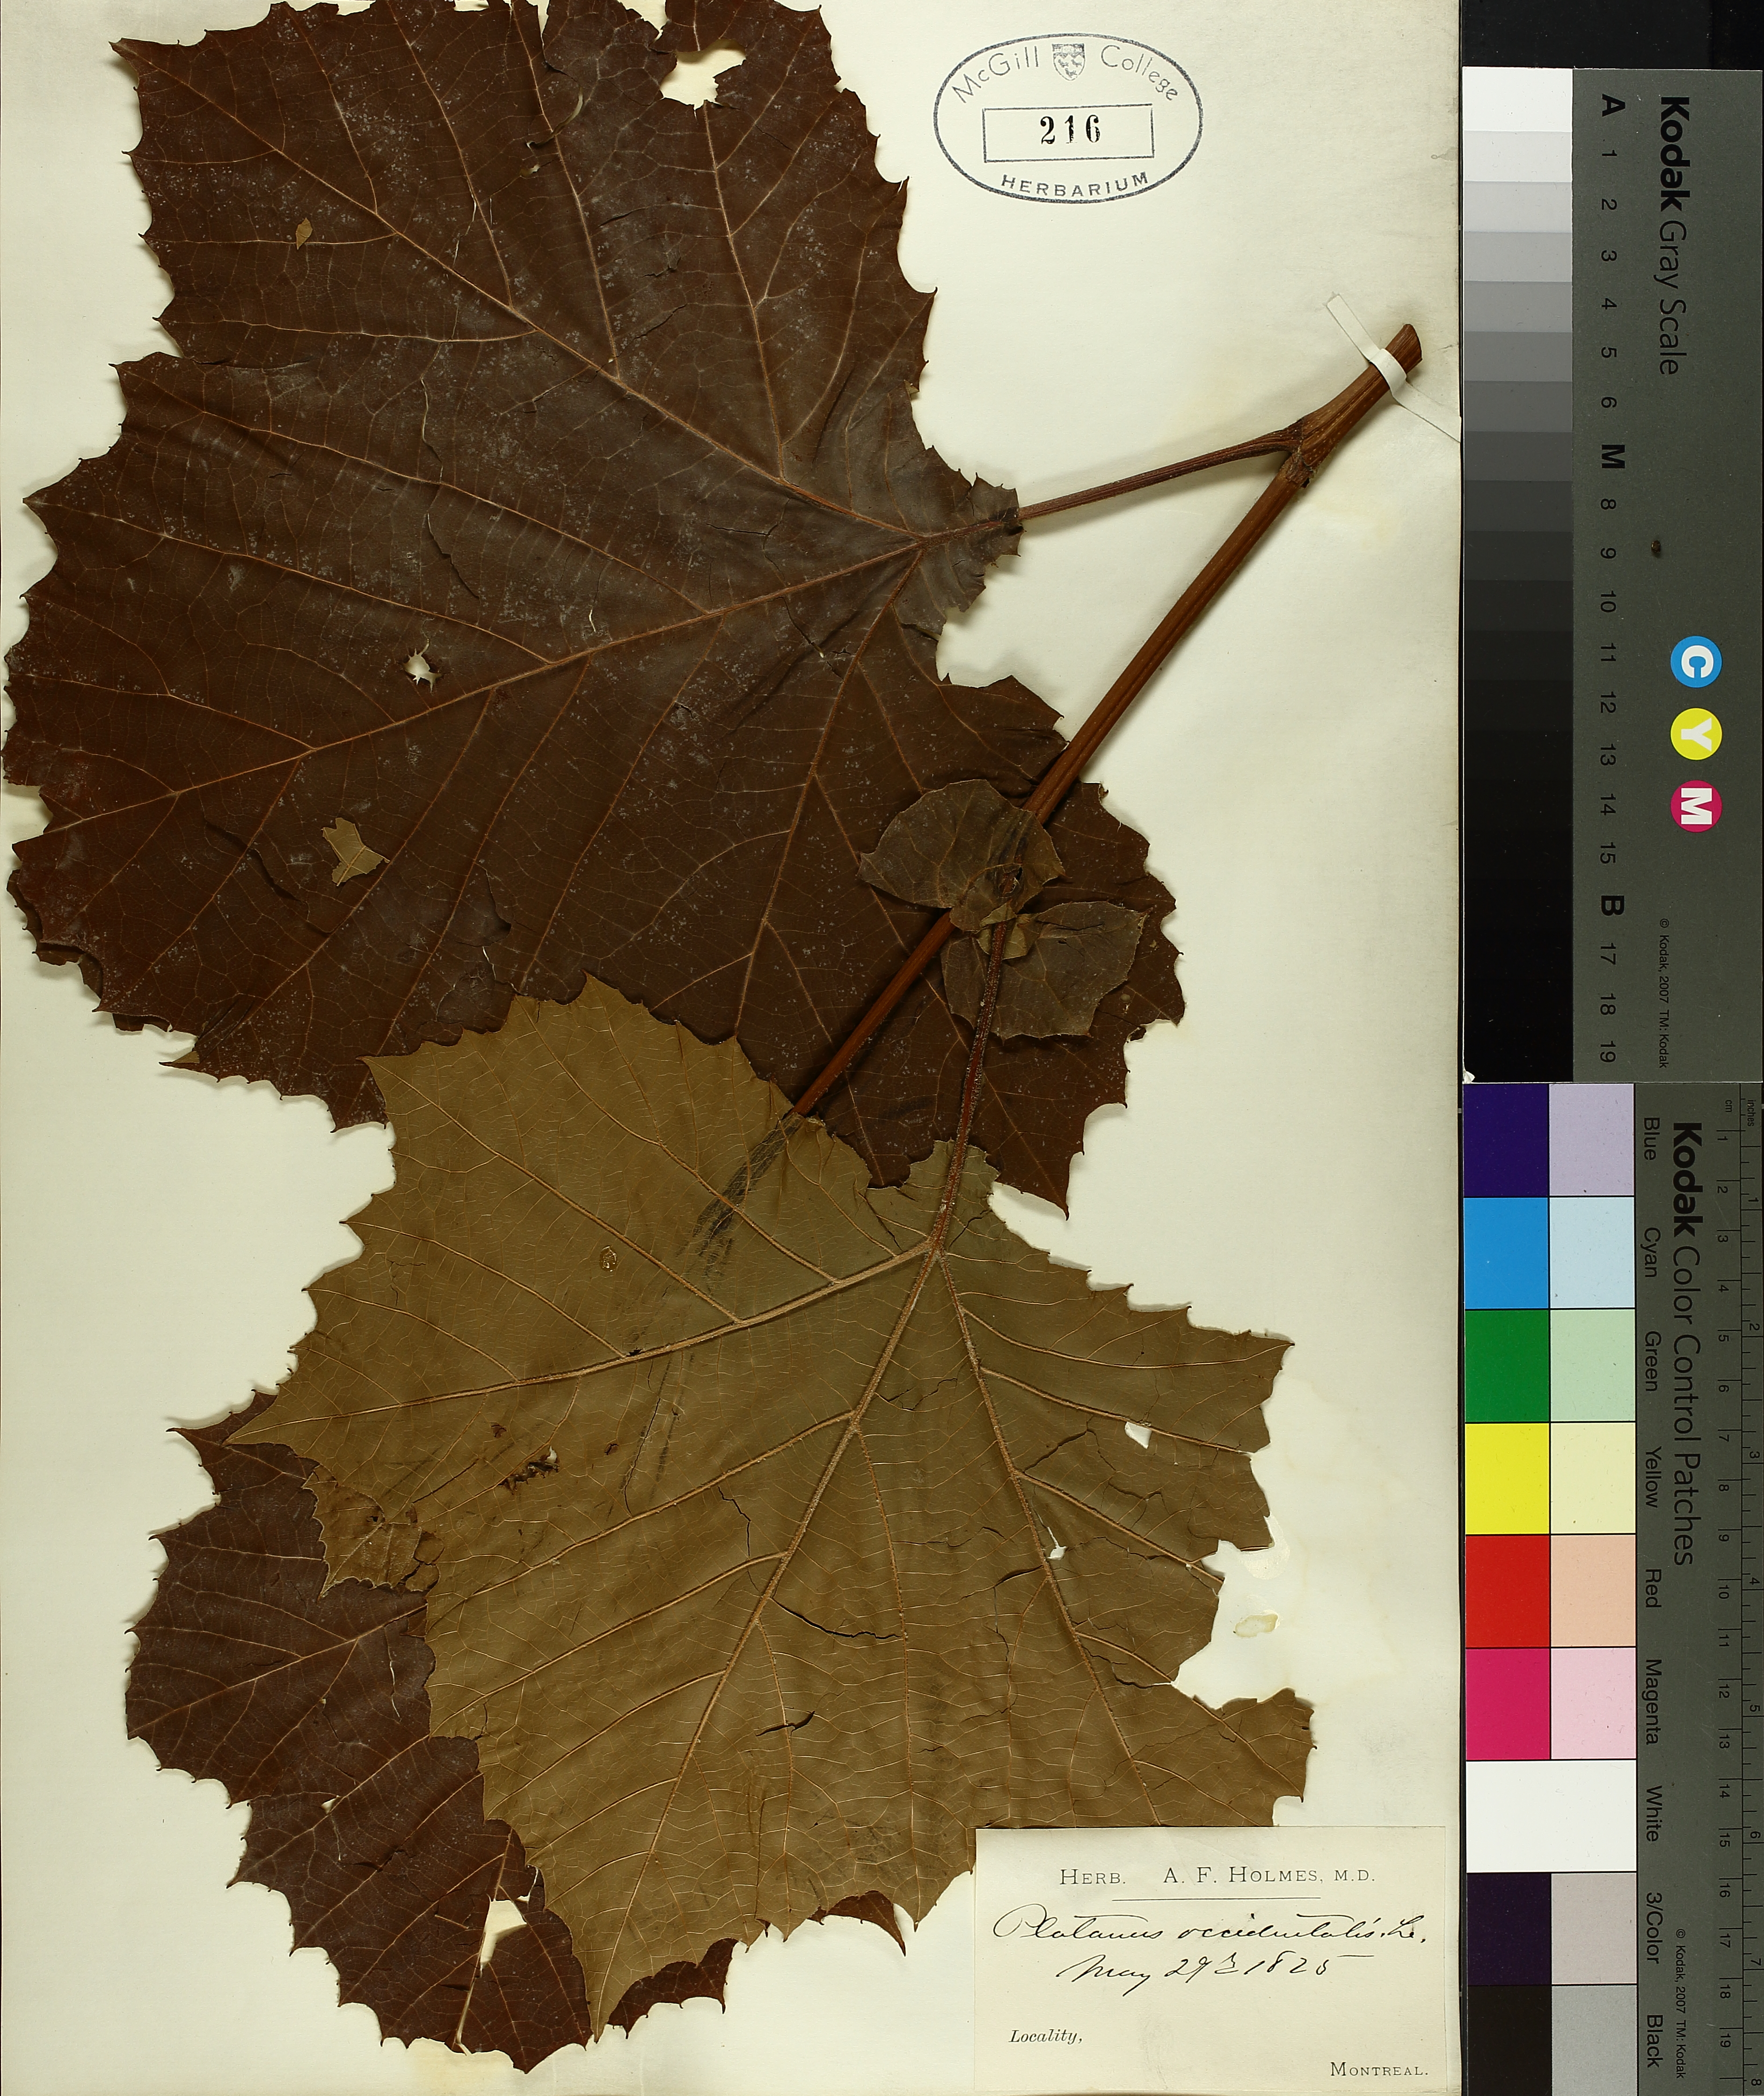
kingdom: Plantae
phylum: Tracheophyta
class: Magnoliopsida
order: Proteales
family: Platanaceae
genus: Platanus
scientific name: Platanus occidentalis
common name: American sycamore
